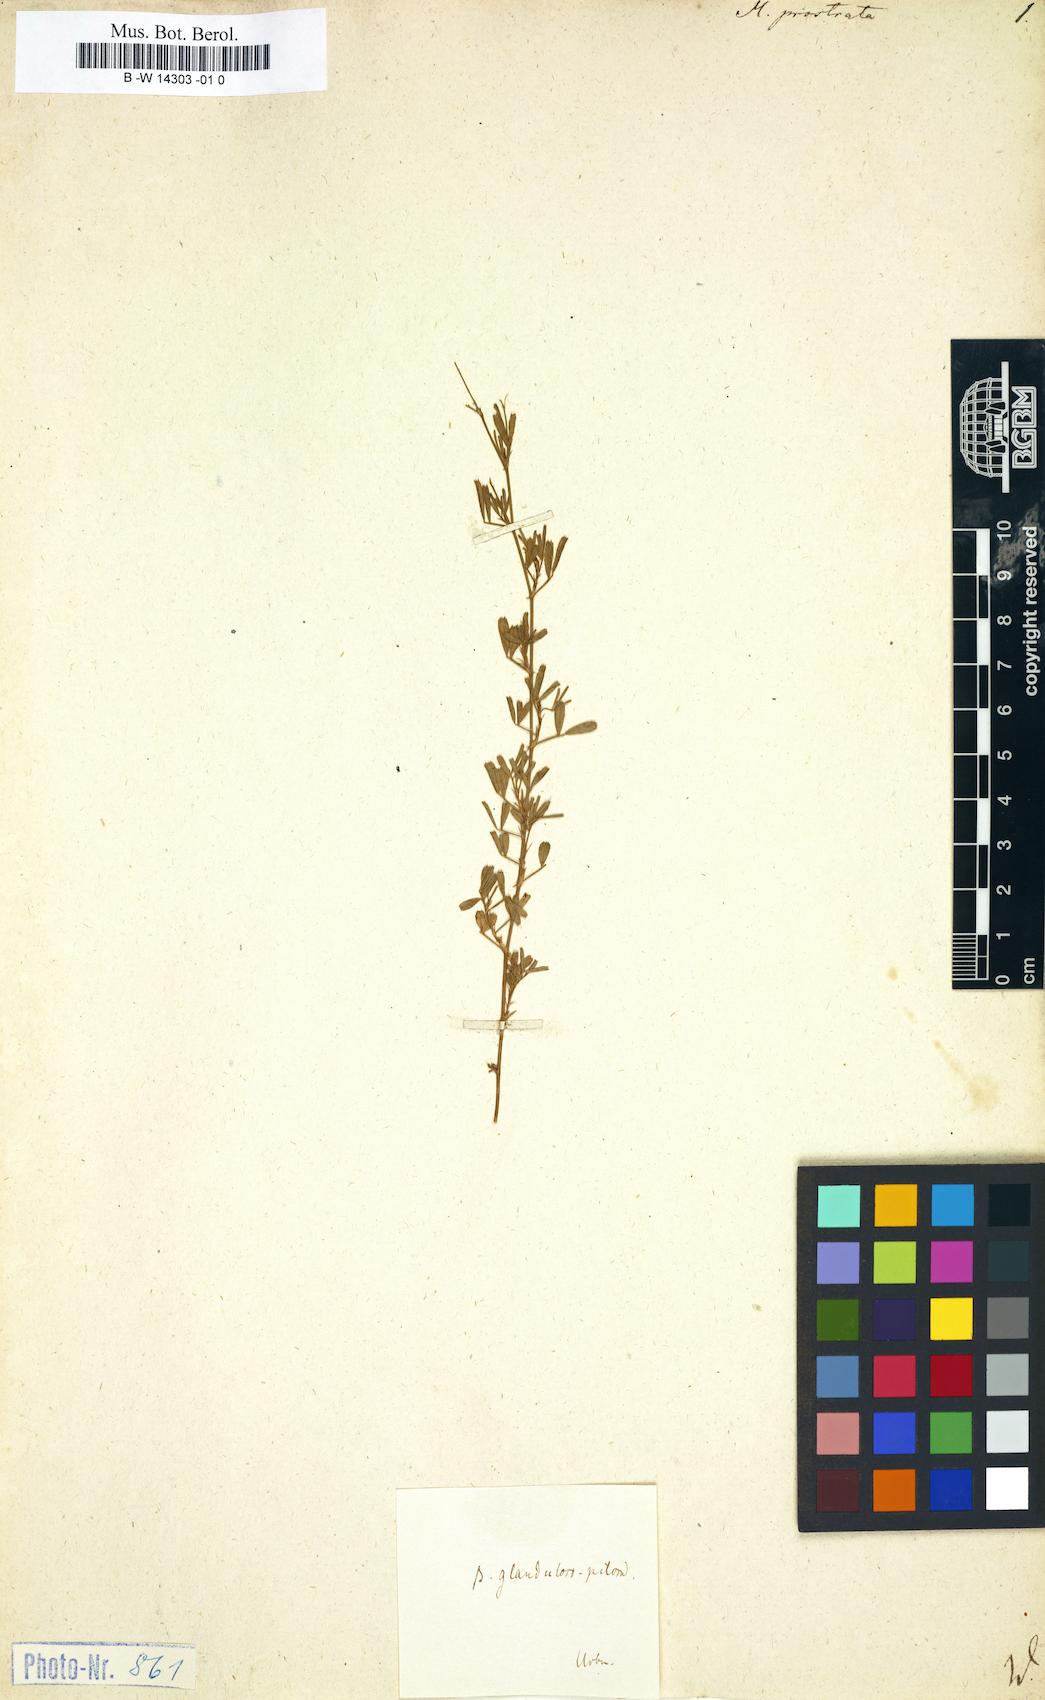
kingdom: Plantae
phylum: Tracheophyta
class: Magnoliopsida
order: Fabales
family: Fabaceae
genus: Medicago
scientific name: Medicago prostrata
